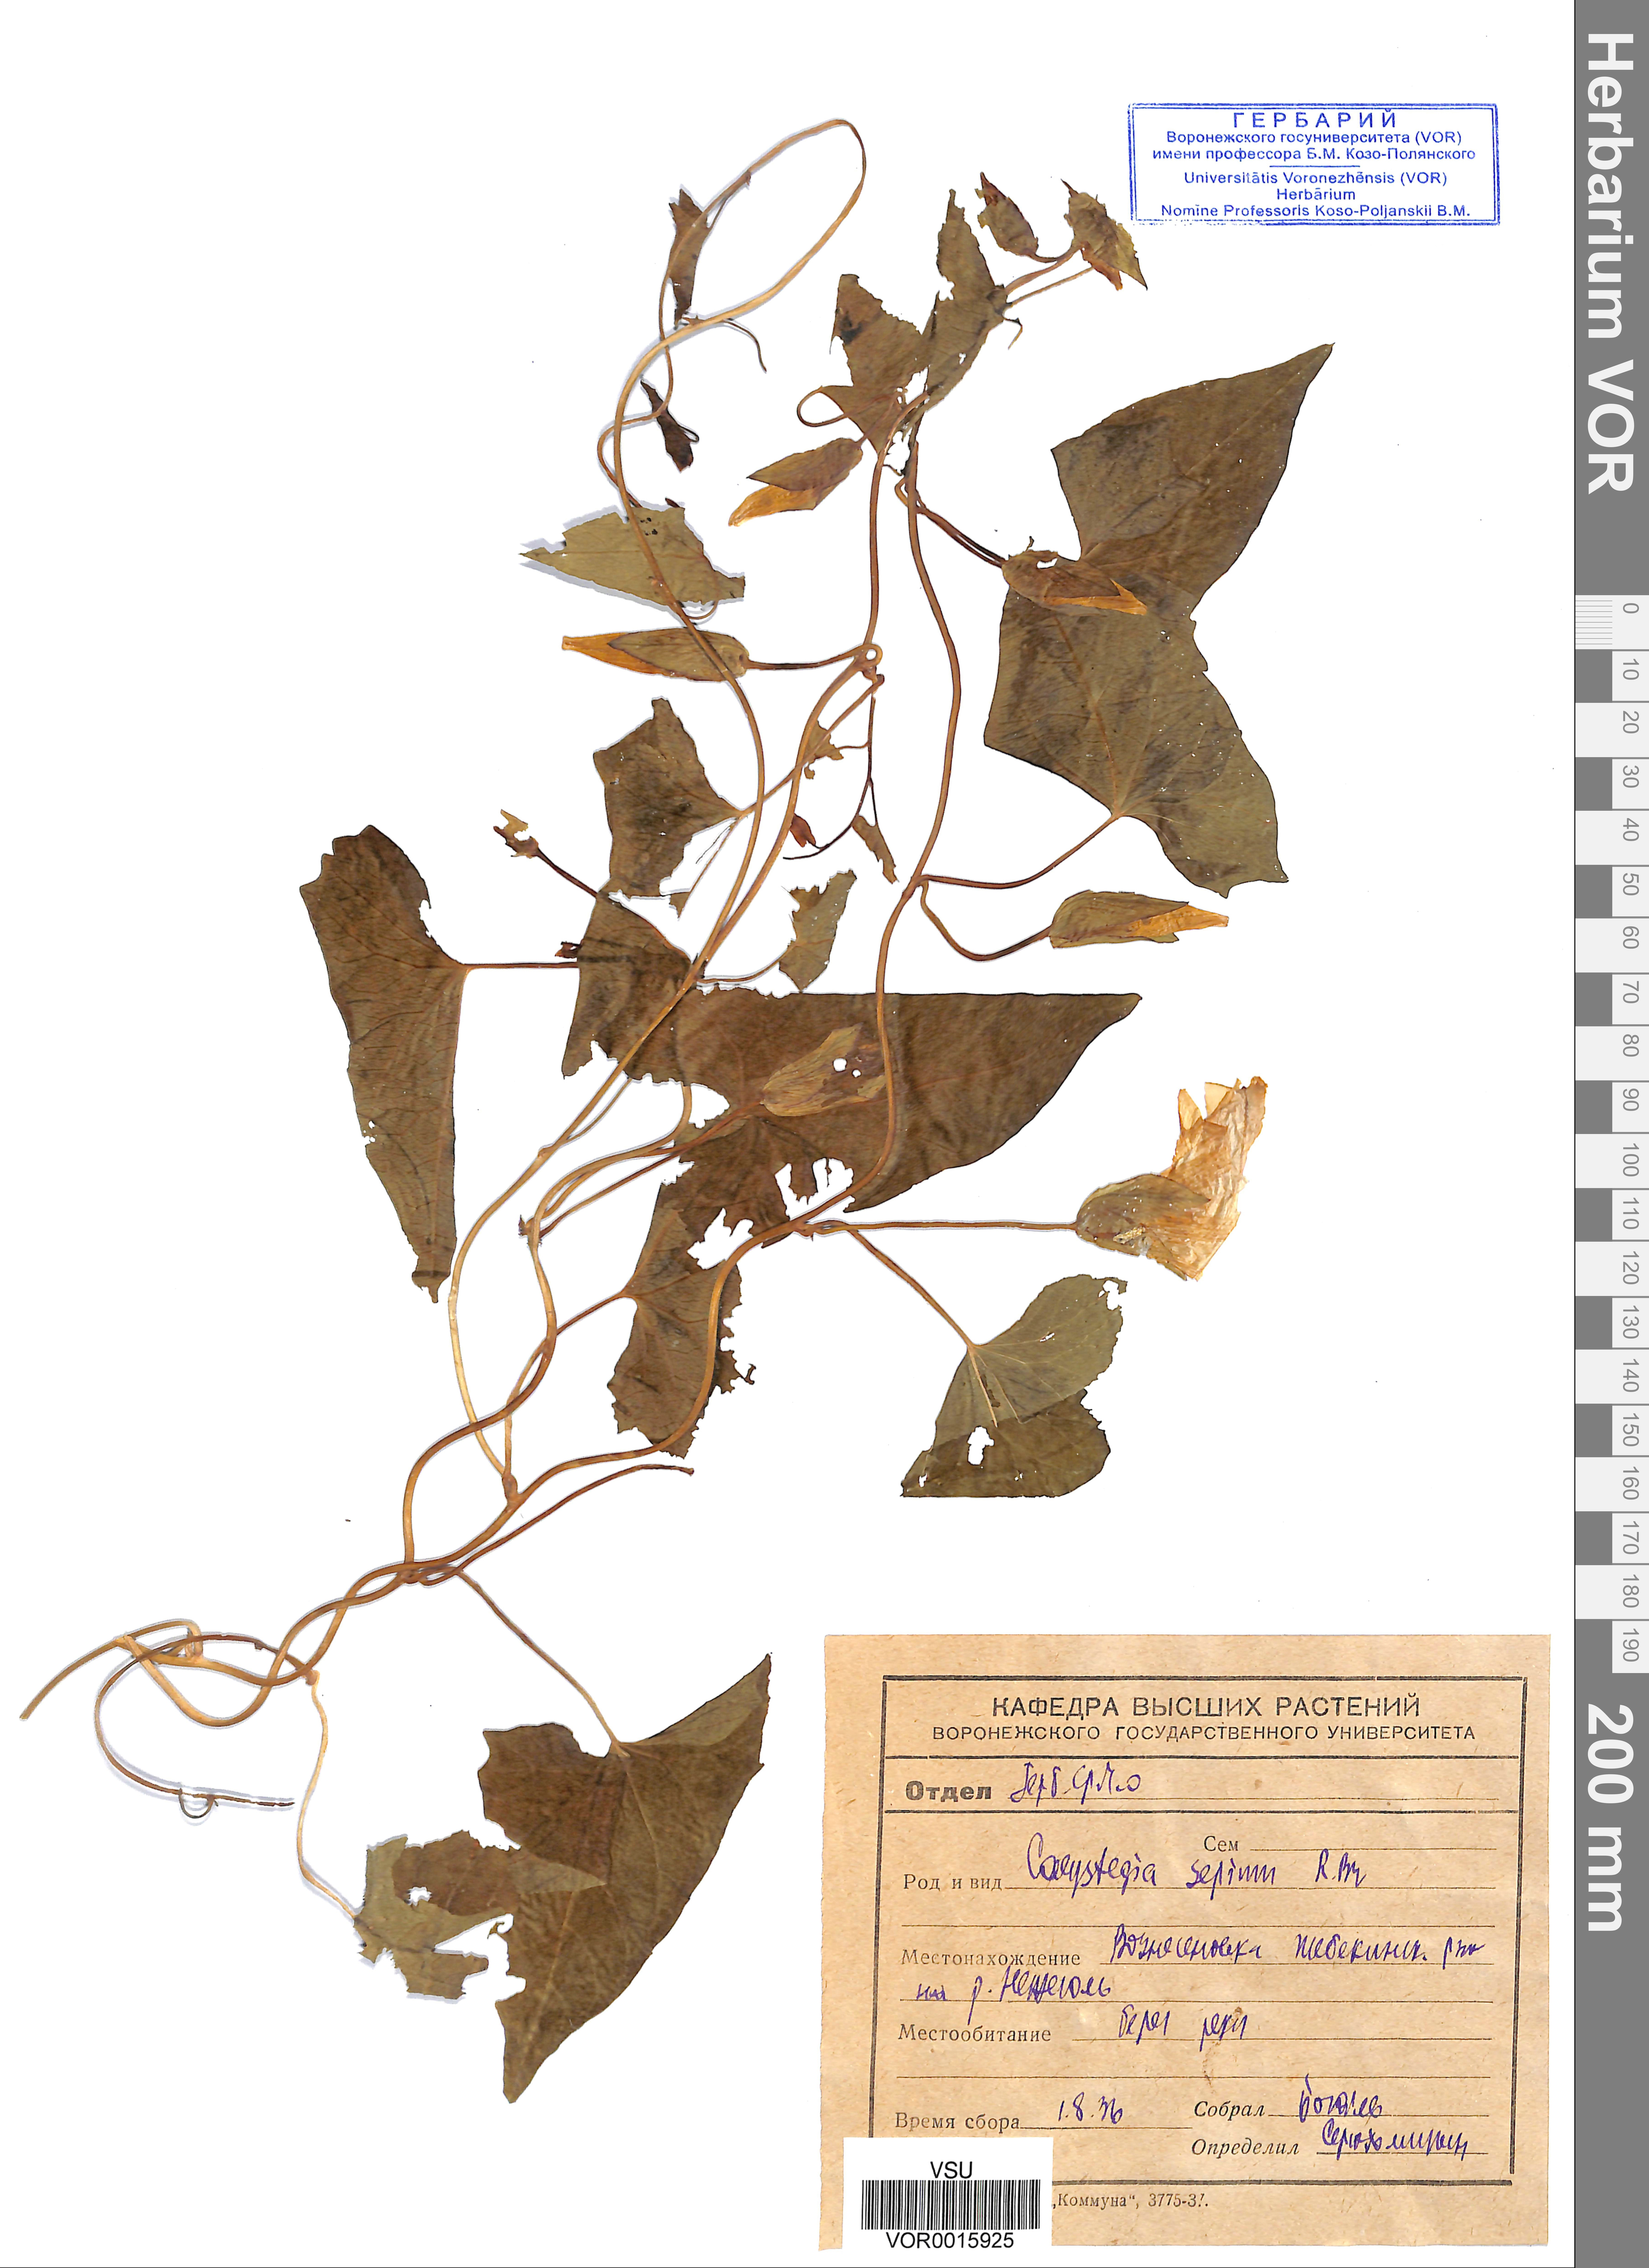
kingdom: Plantae
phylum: Tracheophyta
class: Magnoliopsida
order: Solanales
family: Convolvulaceae
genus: Calystegia
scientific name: Calystegia sepium
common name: Hedge bindweed
